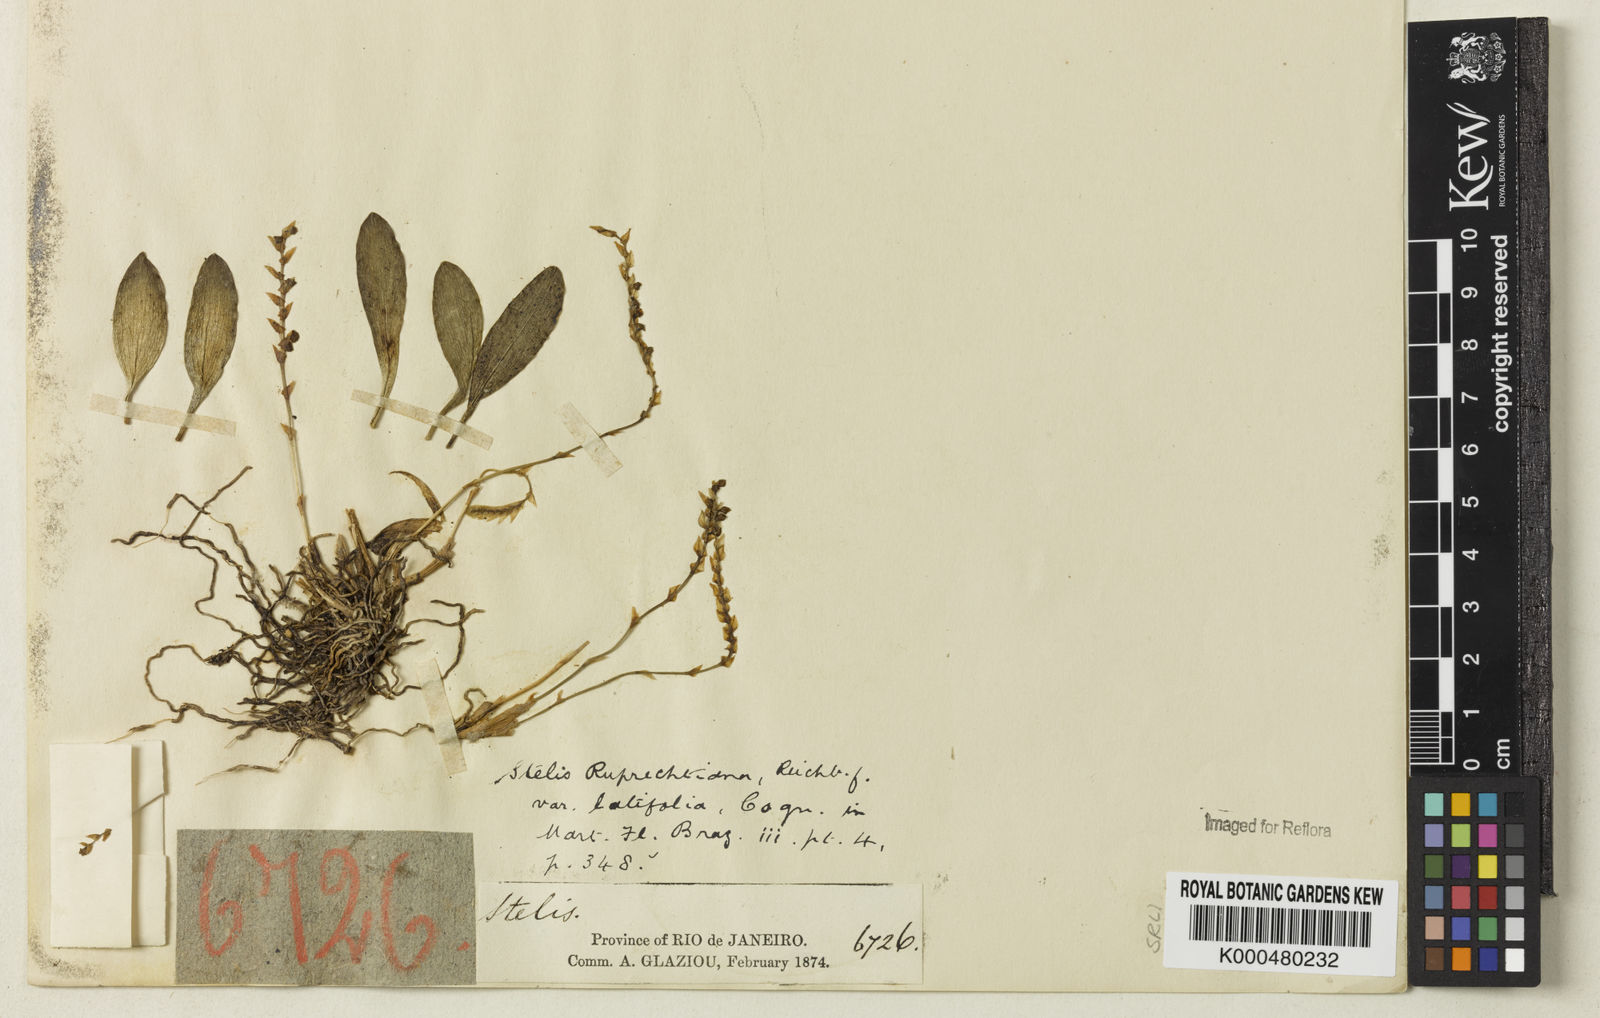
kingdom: Plantae
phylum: Tracheophyta
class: Liliopsida
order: Asparagales
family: Orchidaceae
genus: Stelis
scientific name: Stelis ruprechtiana
